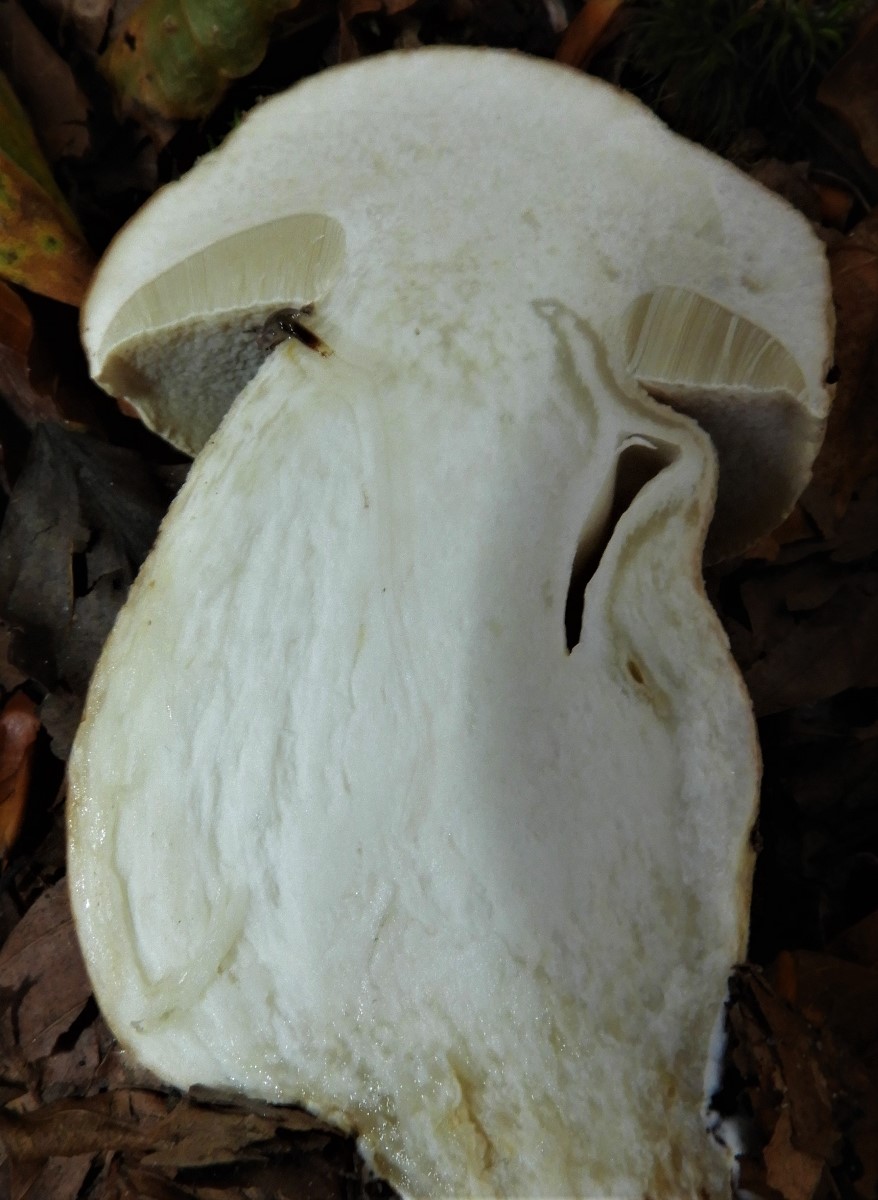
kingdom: Fungi
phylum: Basidiomycota
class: Agaricomycetes
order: Boletales
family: Boletaceae
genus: Boletus
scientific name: Boletus edulis
